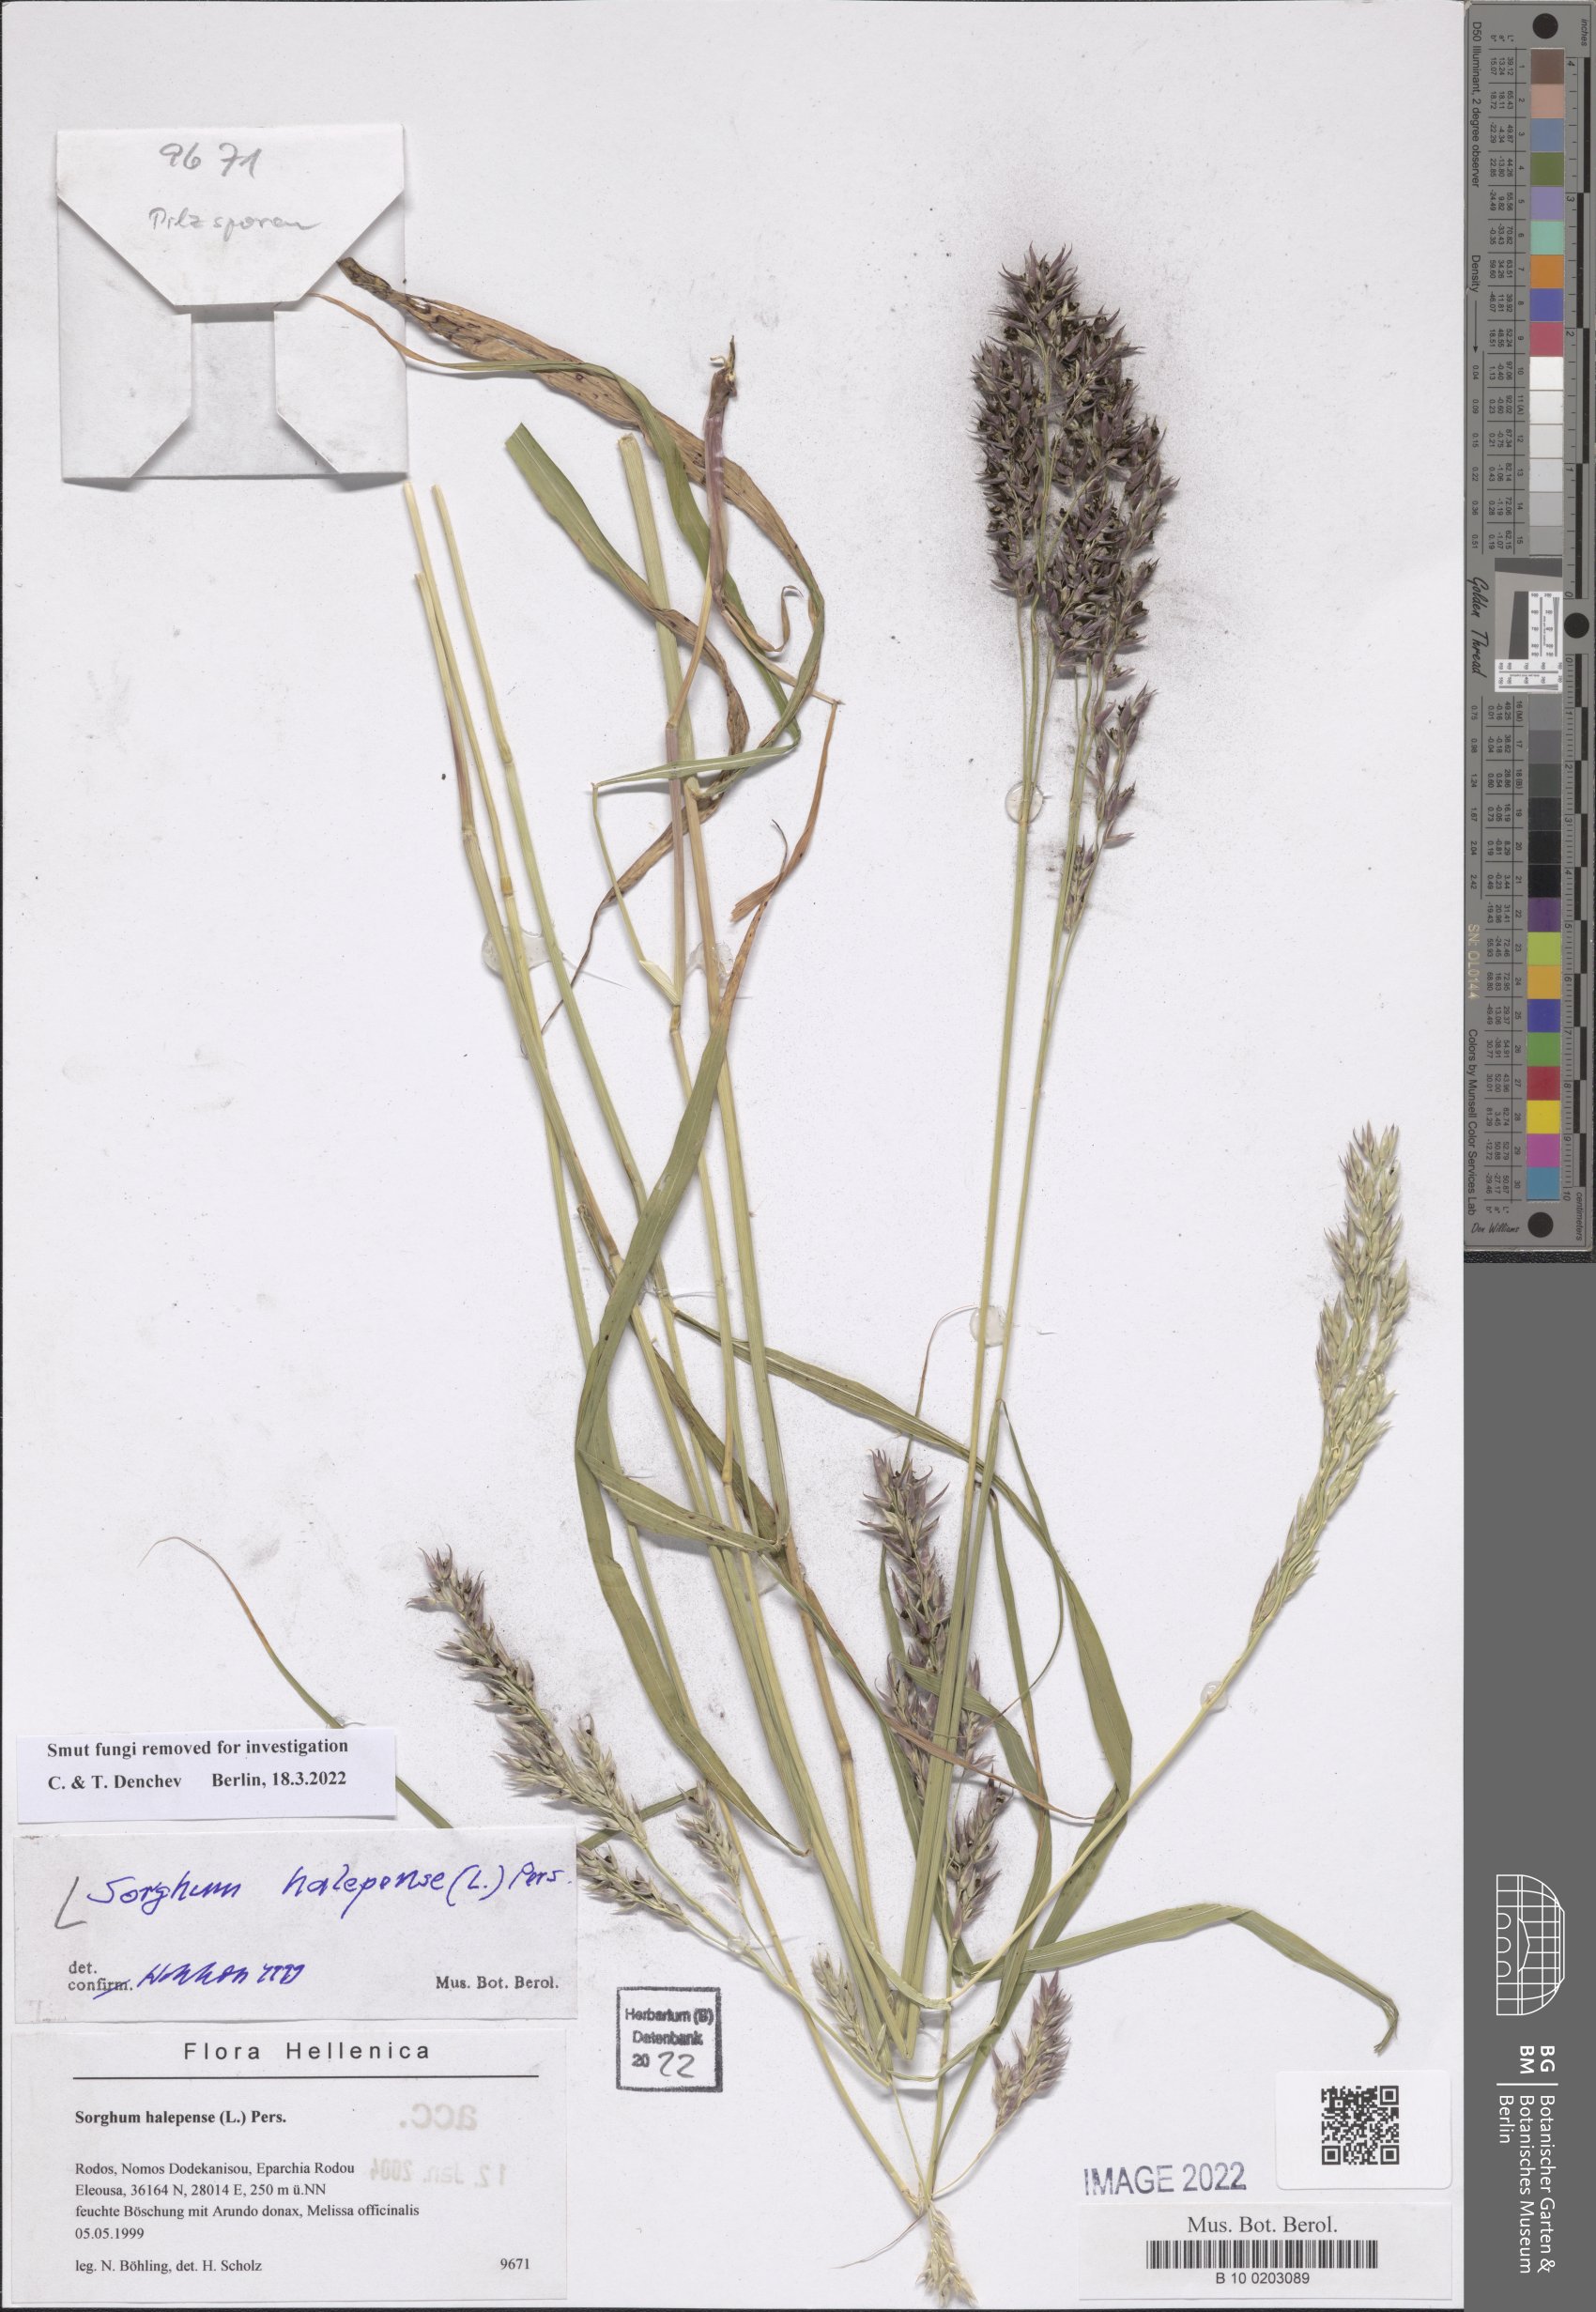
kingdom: Plantae
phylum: Tracheophyta
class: Liliopsida
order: Poales
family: Poaceae
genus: Sorghum
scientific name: Sorghum halepense
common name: Johnson-grass
